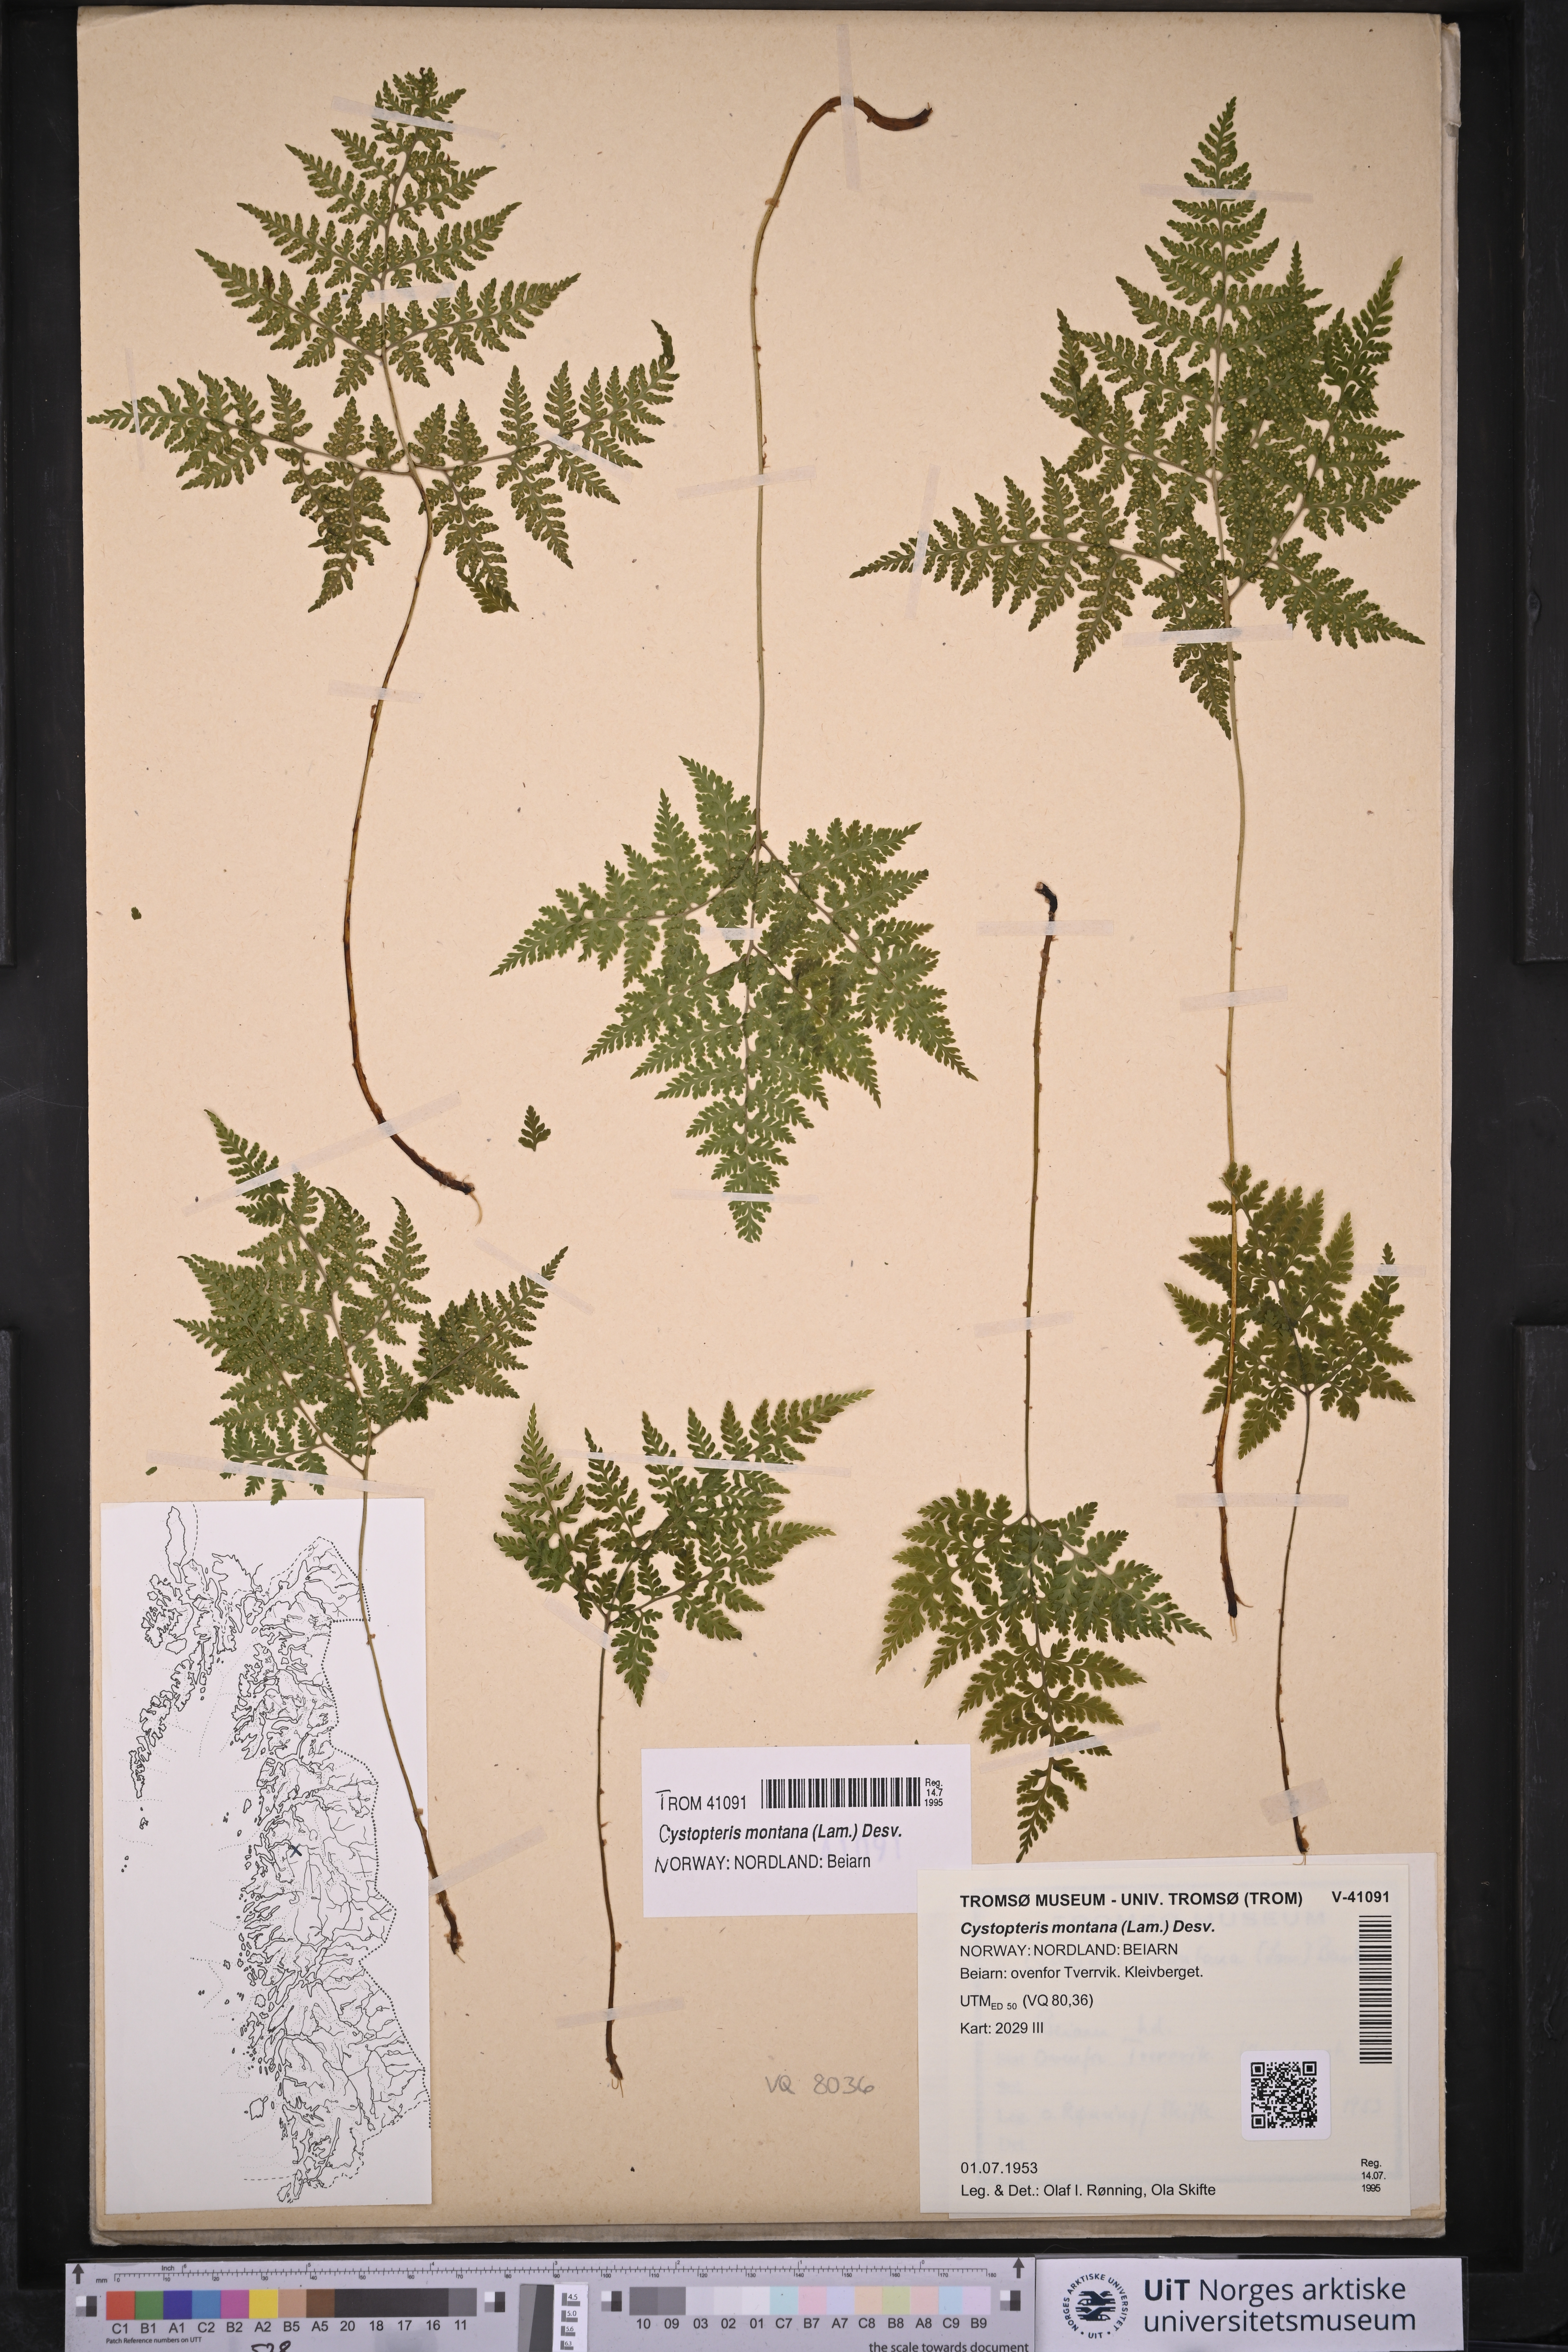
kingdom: Plantae
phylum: Tracheophyta
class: Polypodiopsida
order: Polypodiales
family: Cystopteridaceae
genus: Cystopteris
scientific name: Cystopteris montana
